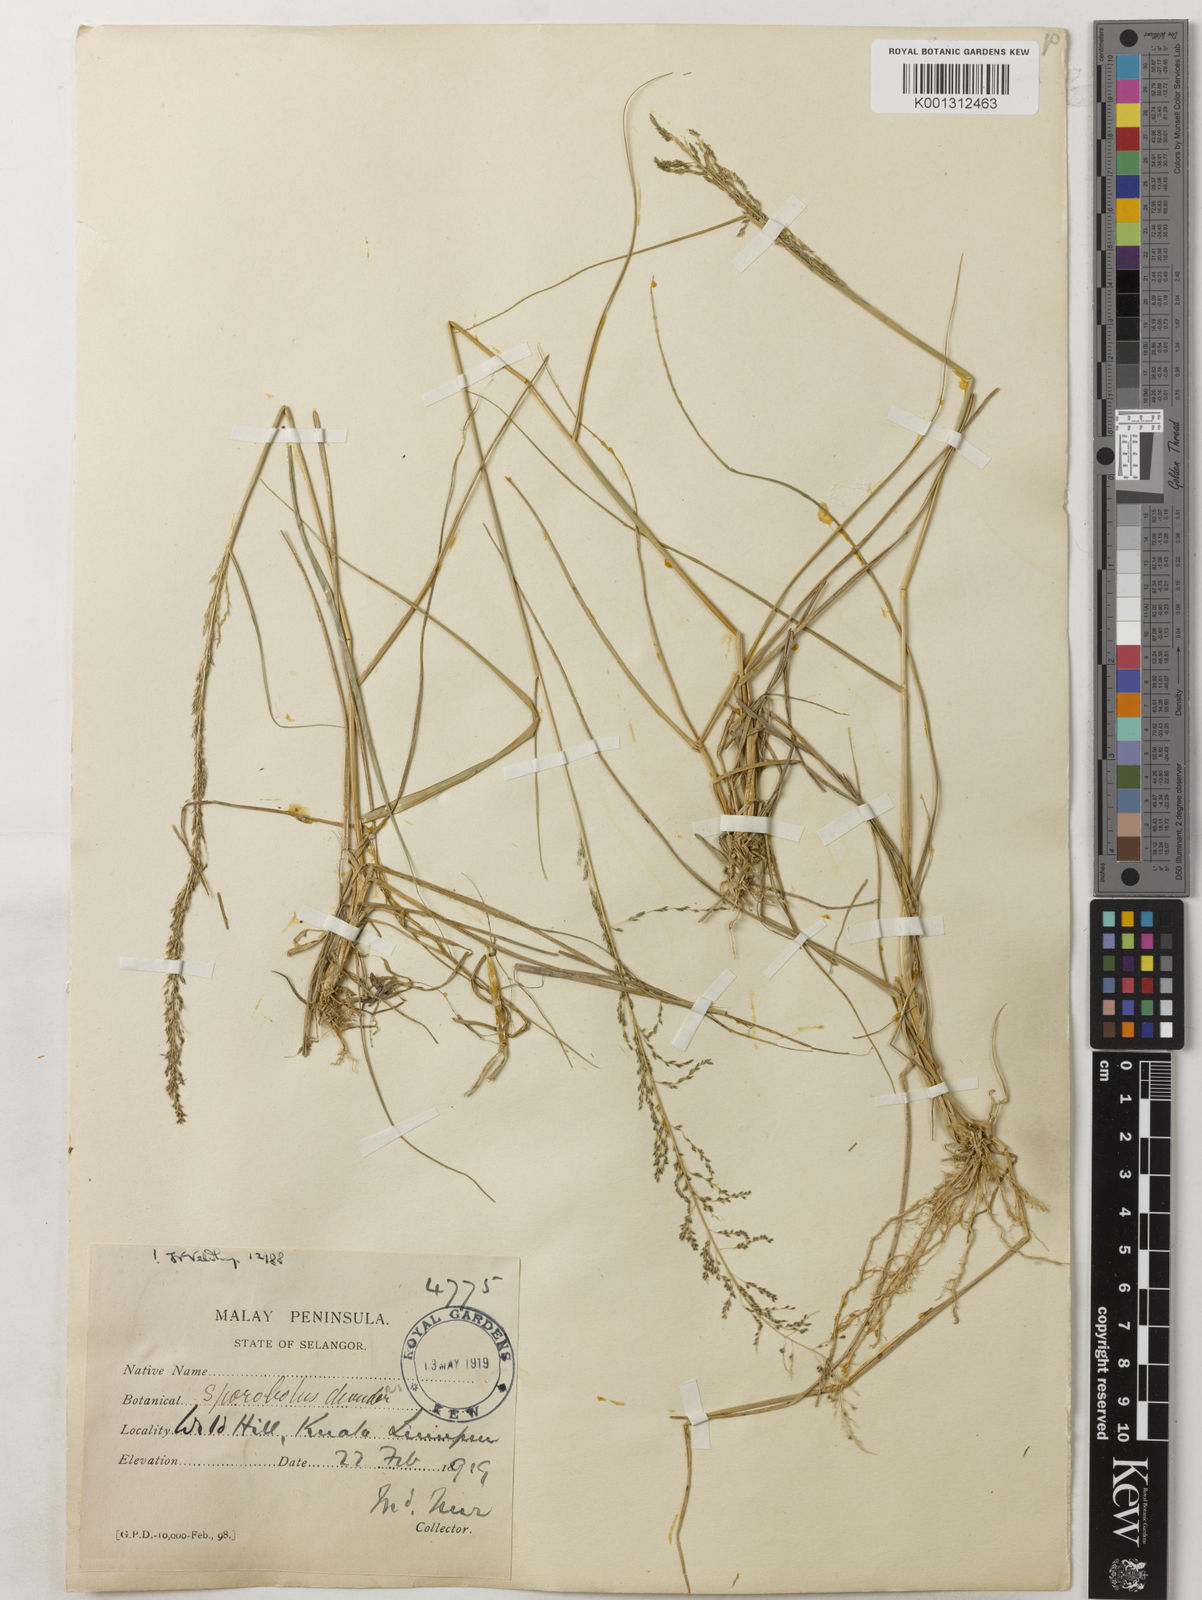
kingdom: Plantae
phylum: Tracheophyta
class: Liliopsida
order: Poales
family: Poaceae
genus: Sporobolus
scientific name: Sporobolus diandrus
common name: Tussock dropseed
